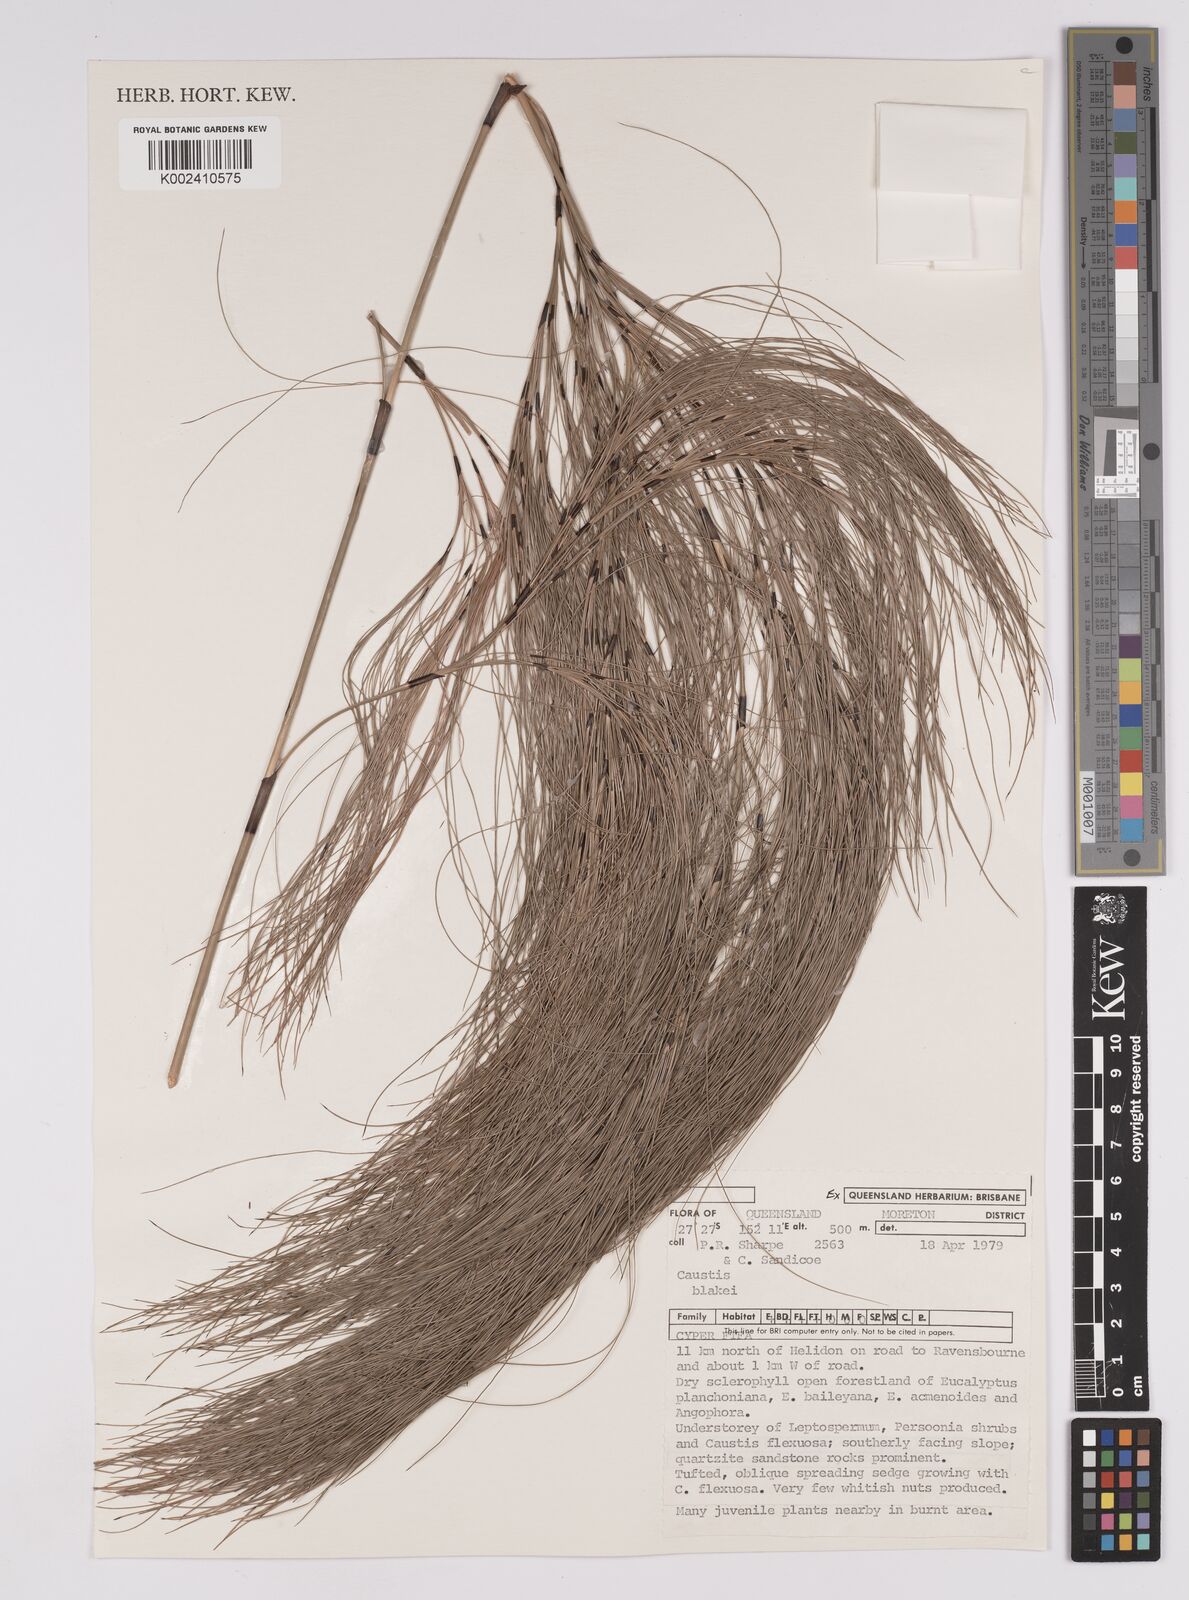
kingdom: Plantae
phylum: Tracheophyta
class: Liliopsida
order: Poales
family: Cyperaceae
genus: Caustis
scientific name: Caustis blakei
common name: Foxtail-fern
